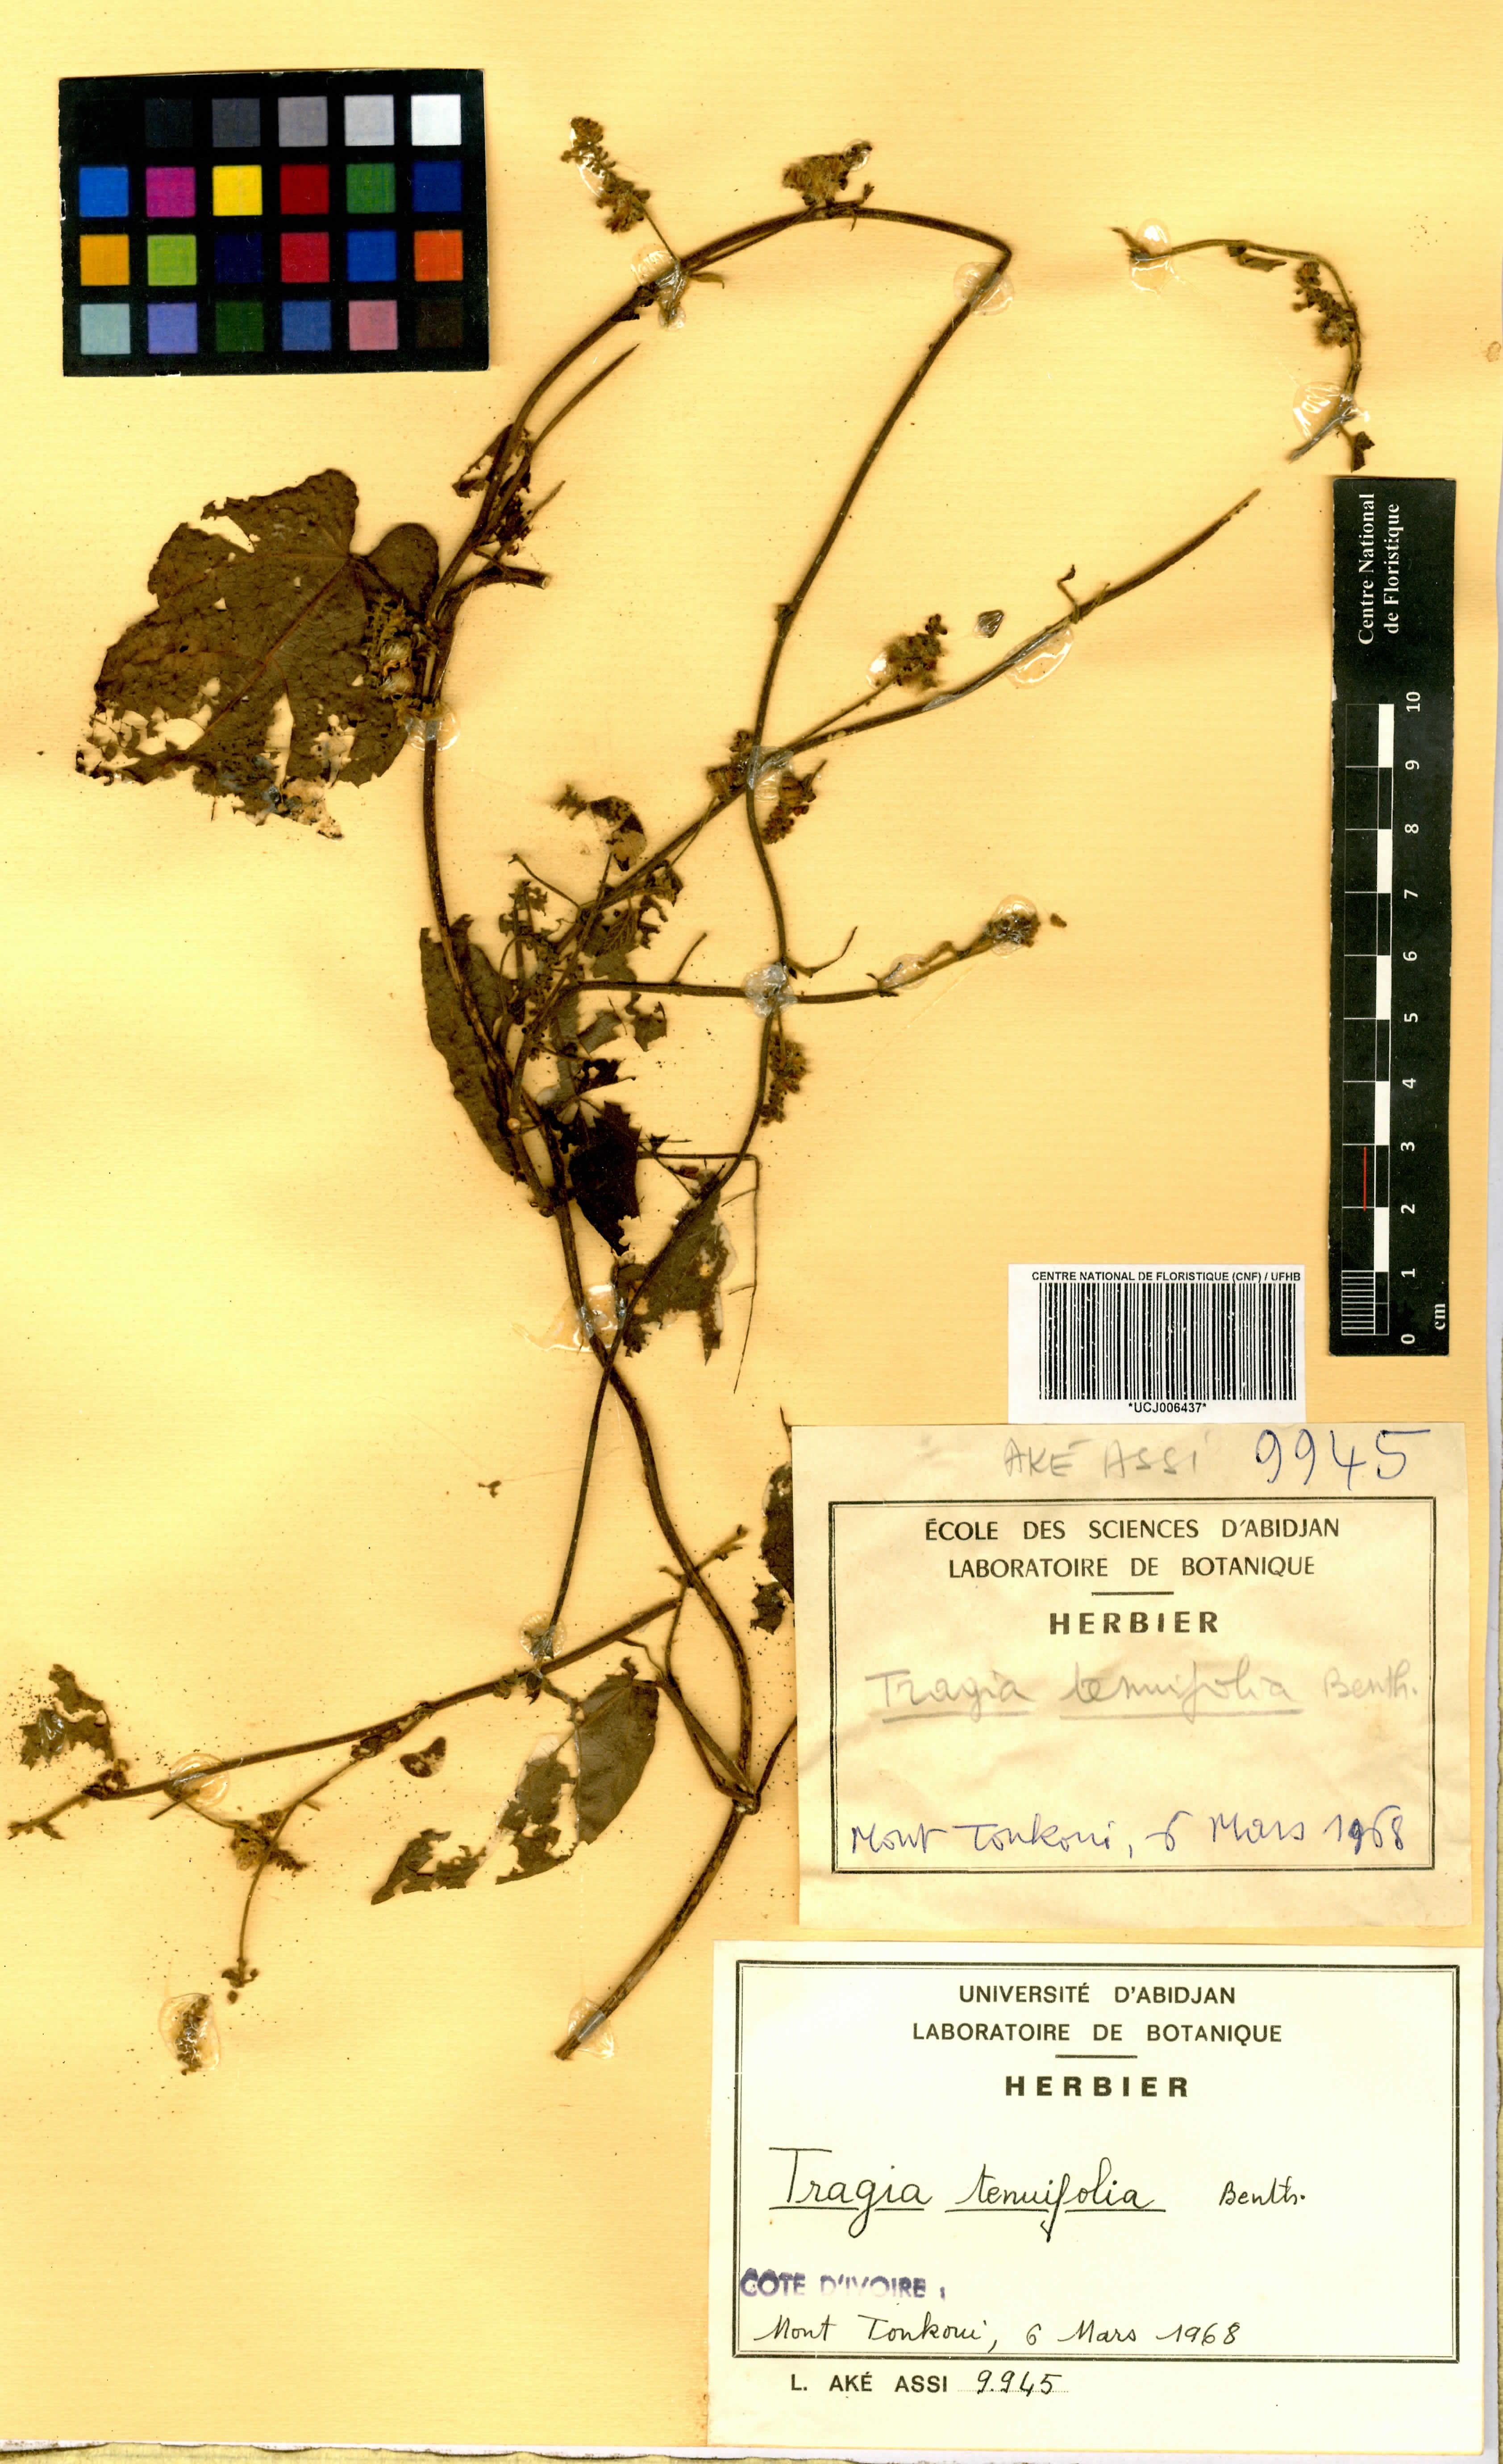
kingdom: Plantae
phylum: Tracheophyta
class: Magnoliopsida
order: Malpighiales
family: Euphorbiaceae
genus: Tragia
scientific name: Tragia tenuifolia
